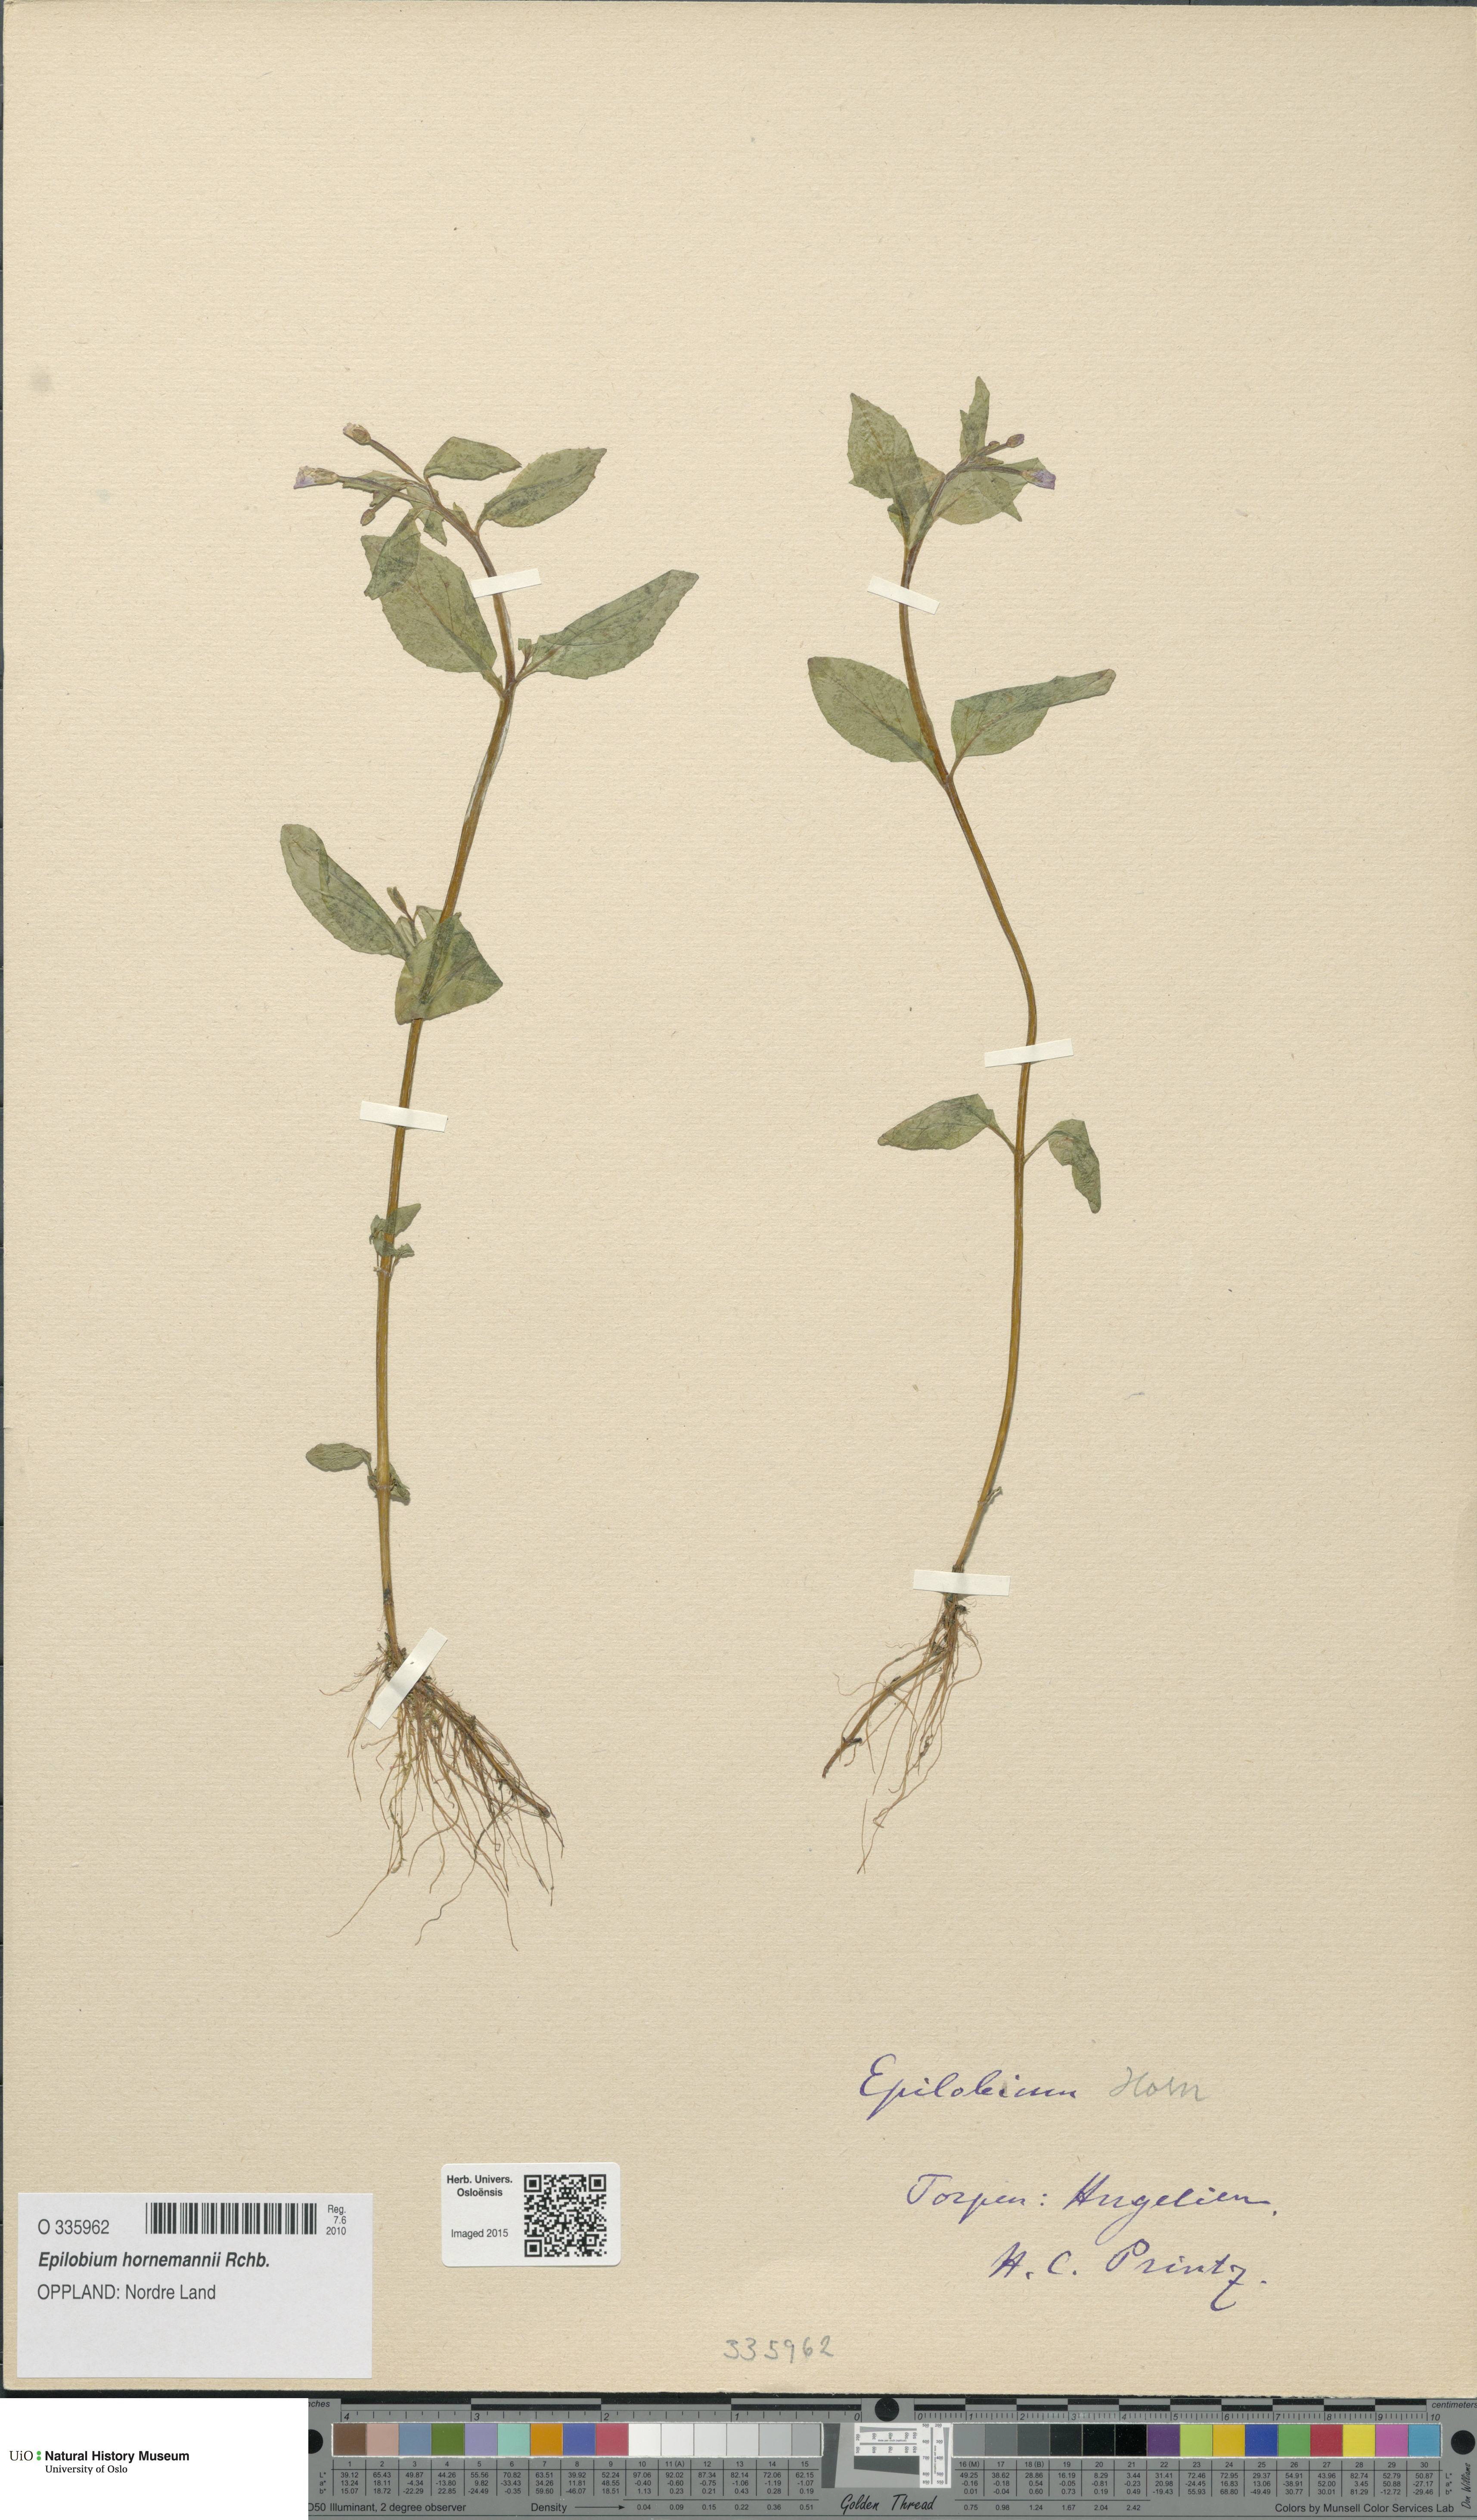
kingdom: Plantae
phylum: Tracheophyta
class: Magnoliopsida
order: Myrtales
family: Onagraceae
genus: Epilobium
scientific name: Epilobium hornemannii
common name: Hornemann's willowherb
